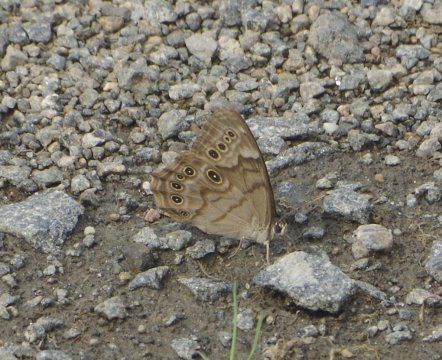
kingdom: Animalia
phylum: Arthropoda
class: Insecta
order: Lepidoptera
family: Nymphalidae
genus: Lethe
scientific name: Lethe anthedon
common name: Northern Pearly-Eye
